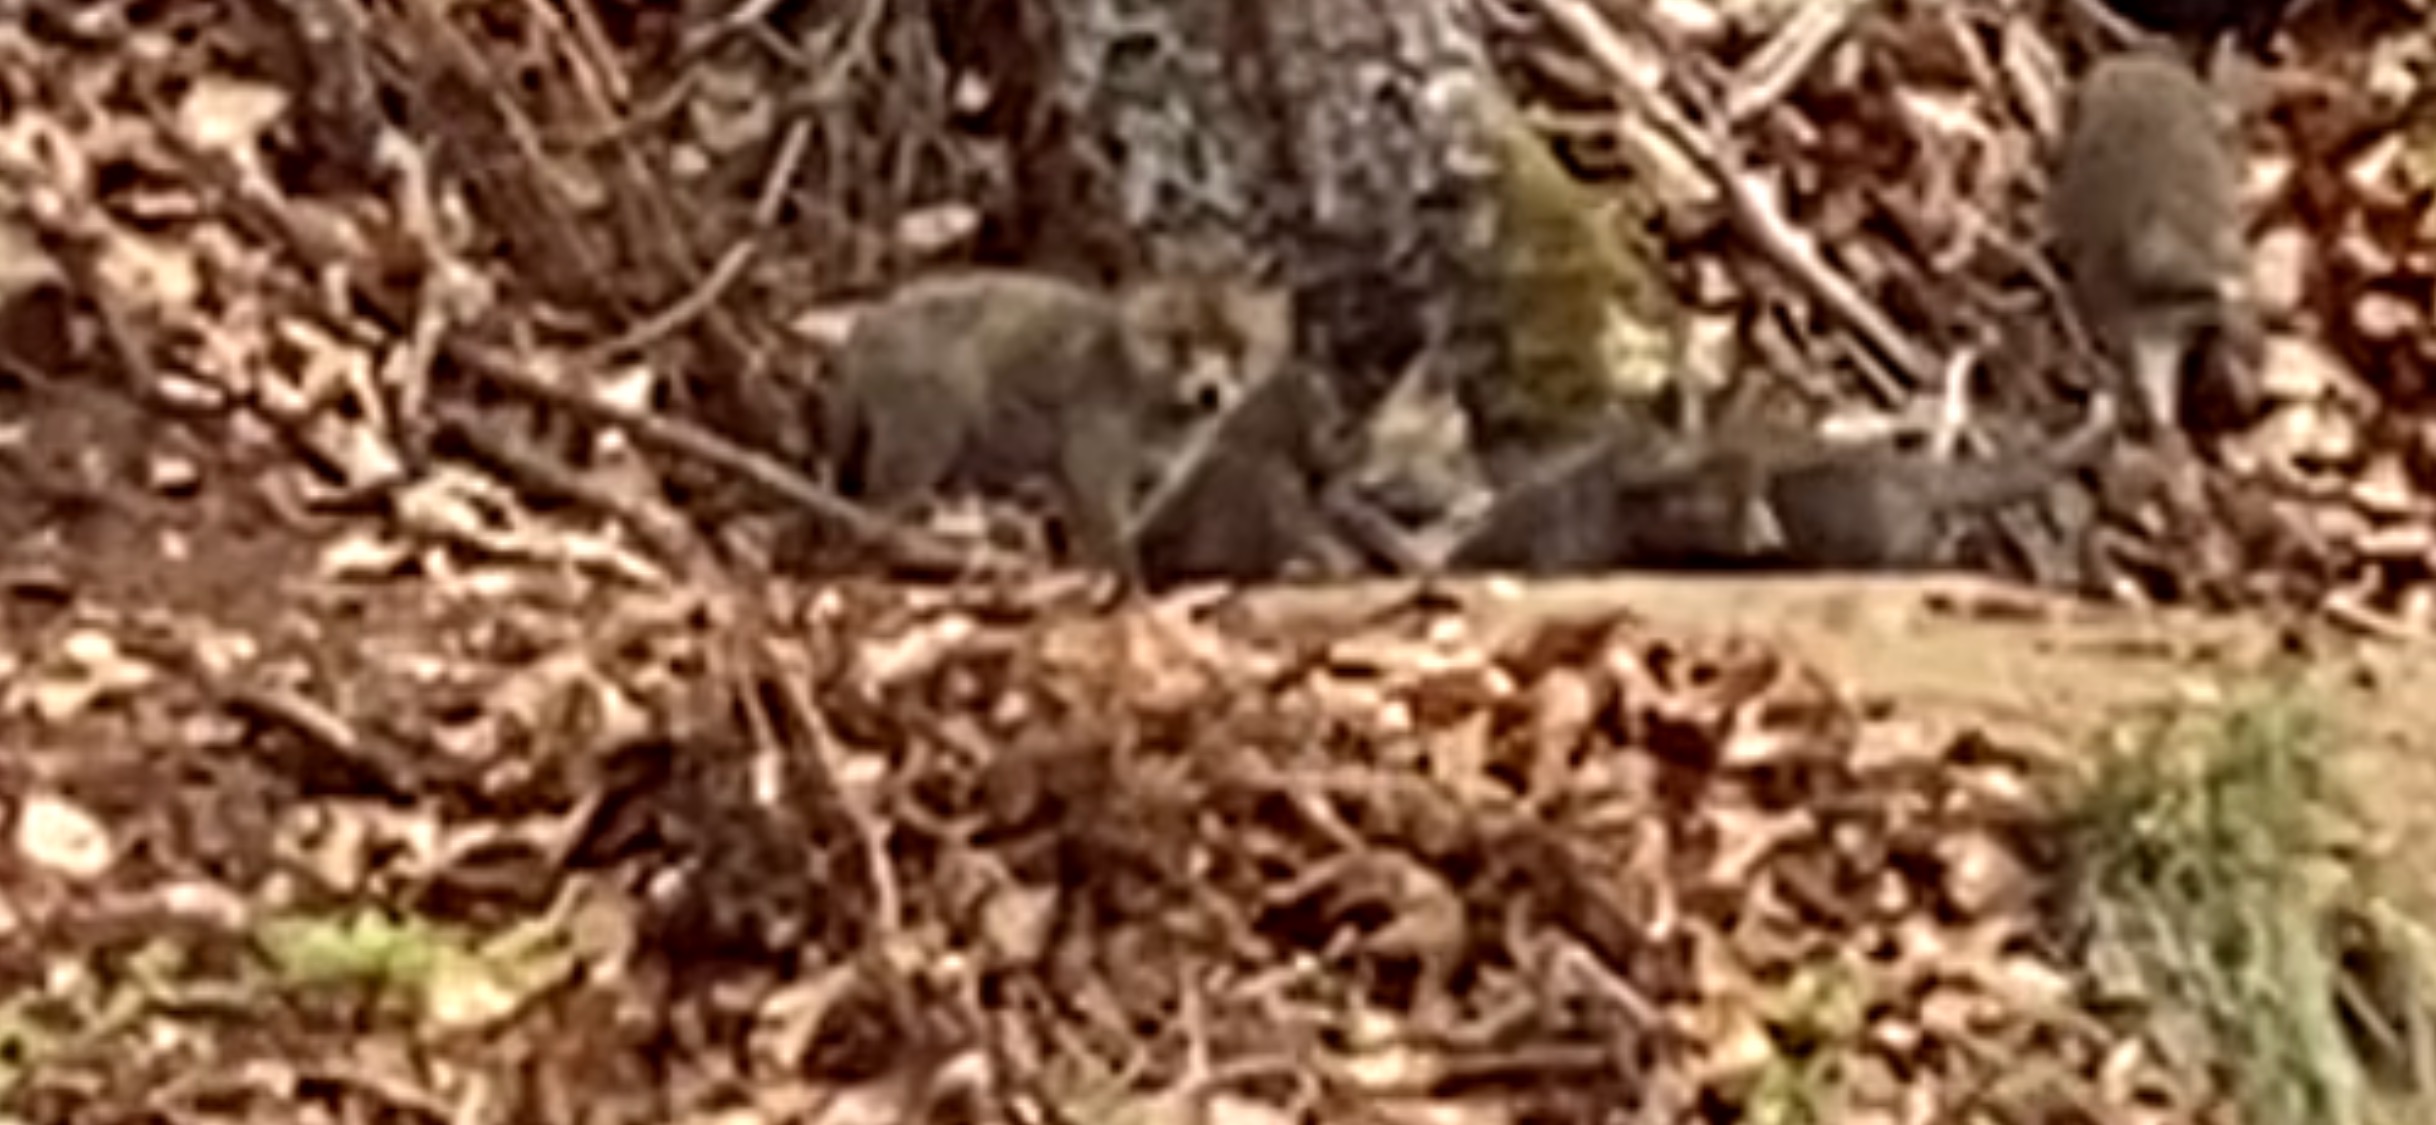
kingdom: Animalia
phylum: Chordata
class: Mammalia
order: Carnivora
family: Canidae
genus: Nyctereutes
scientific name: Nyctereutes procyonoides
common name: Mårhund
